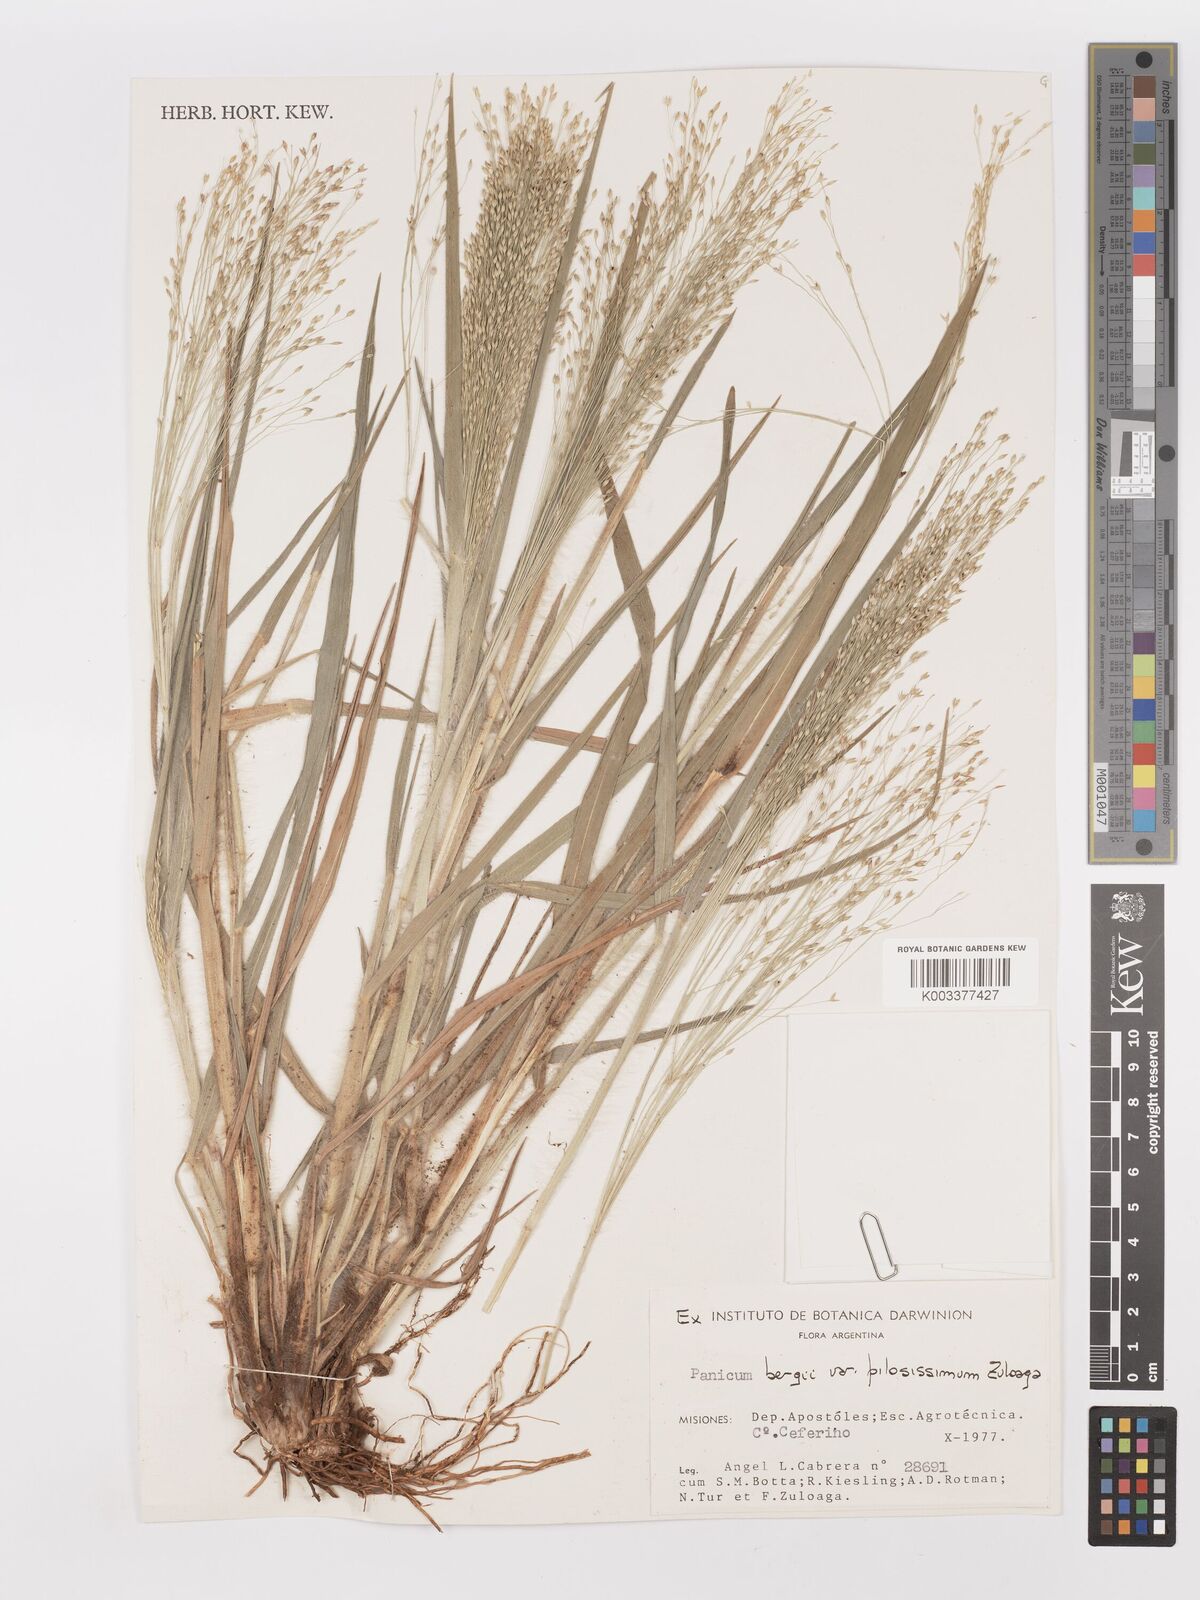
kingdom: Plantae
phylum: Tracheophyta
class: Liliopsida
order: Poales
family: Poaceae
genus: Panicum
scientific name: Panicum bergii
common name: Berg's panicgrass
